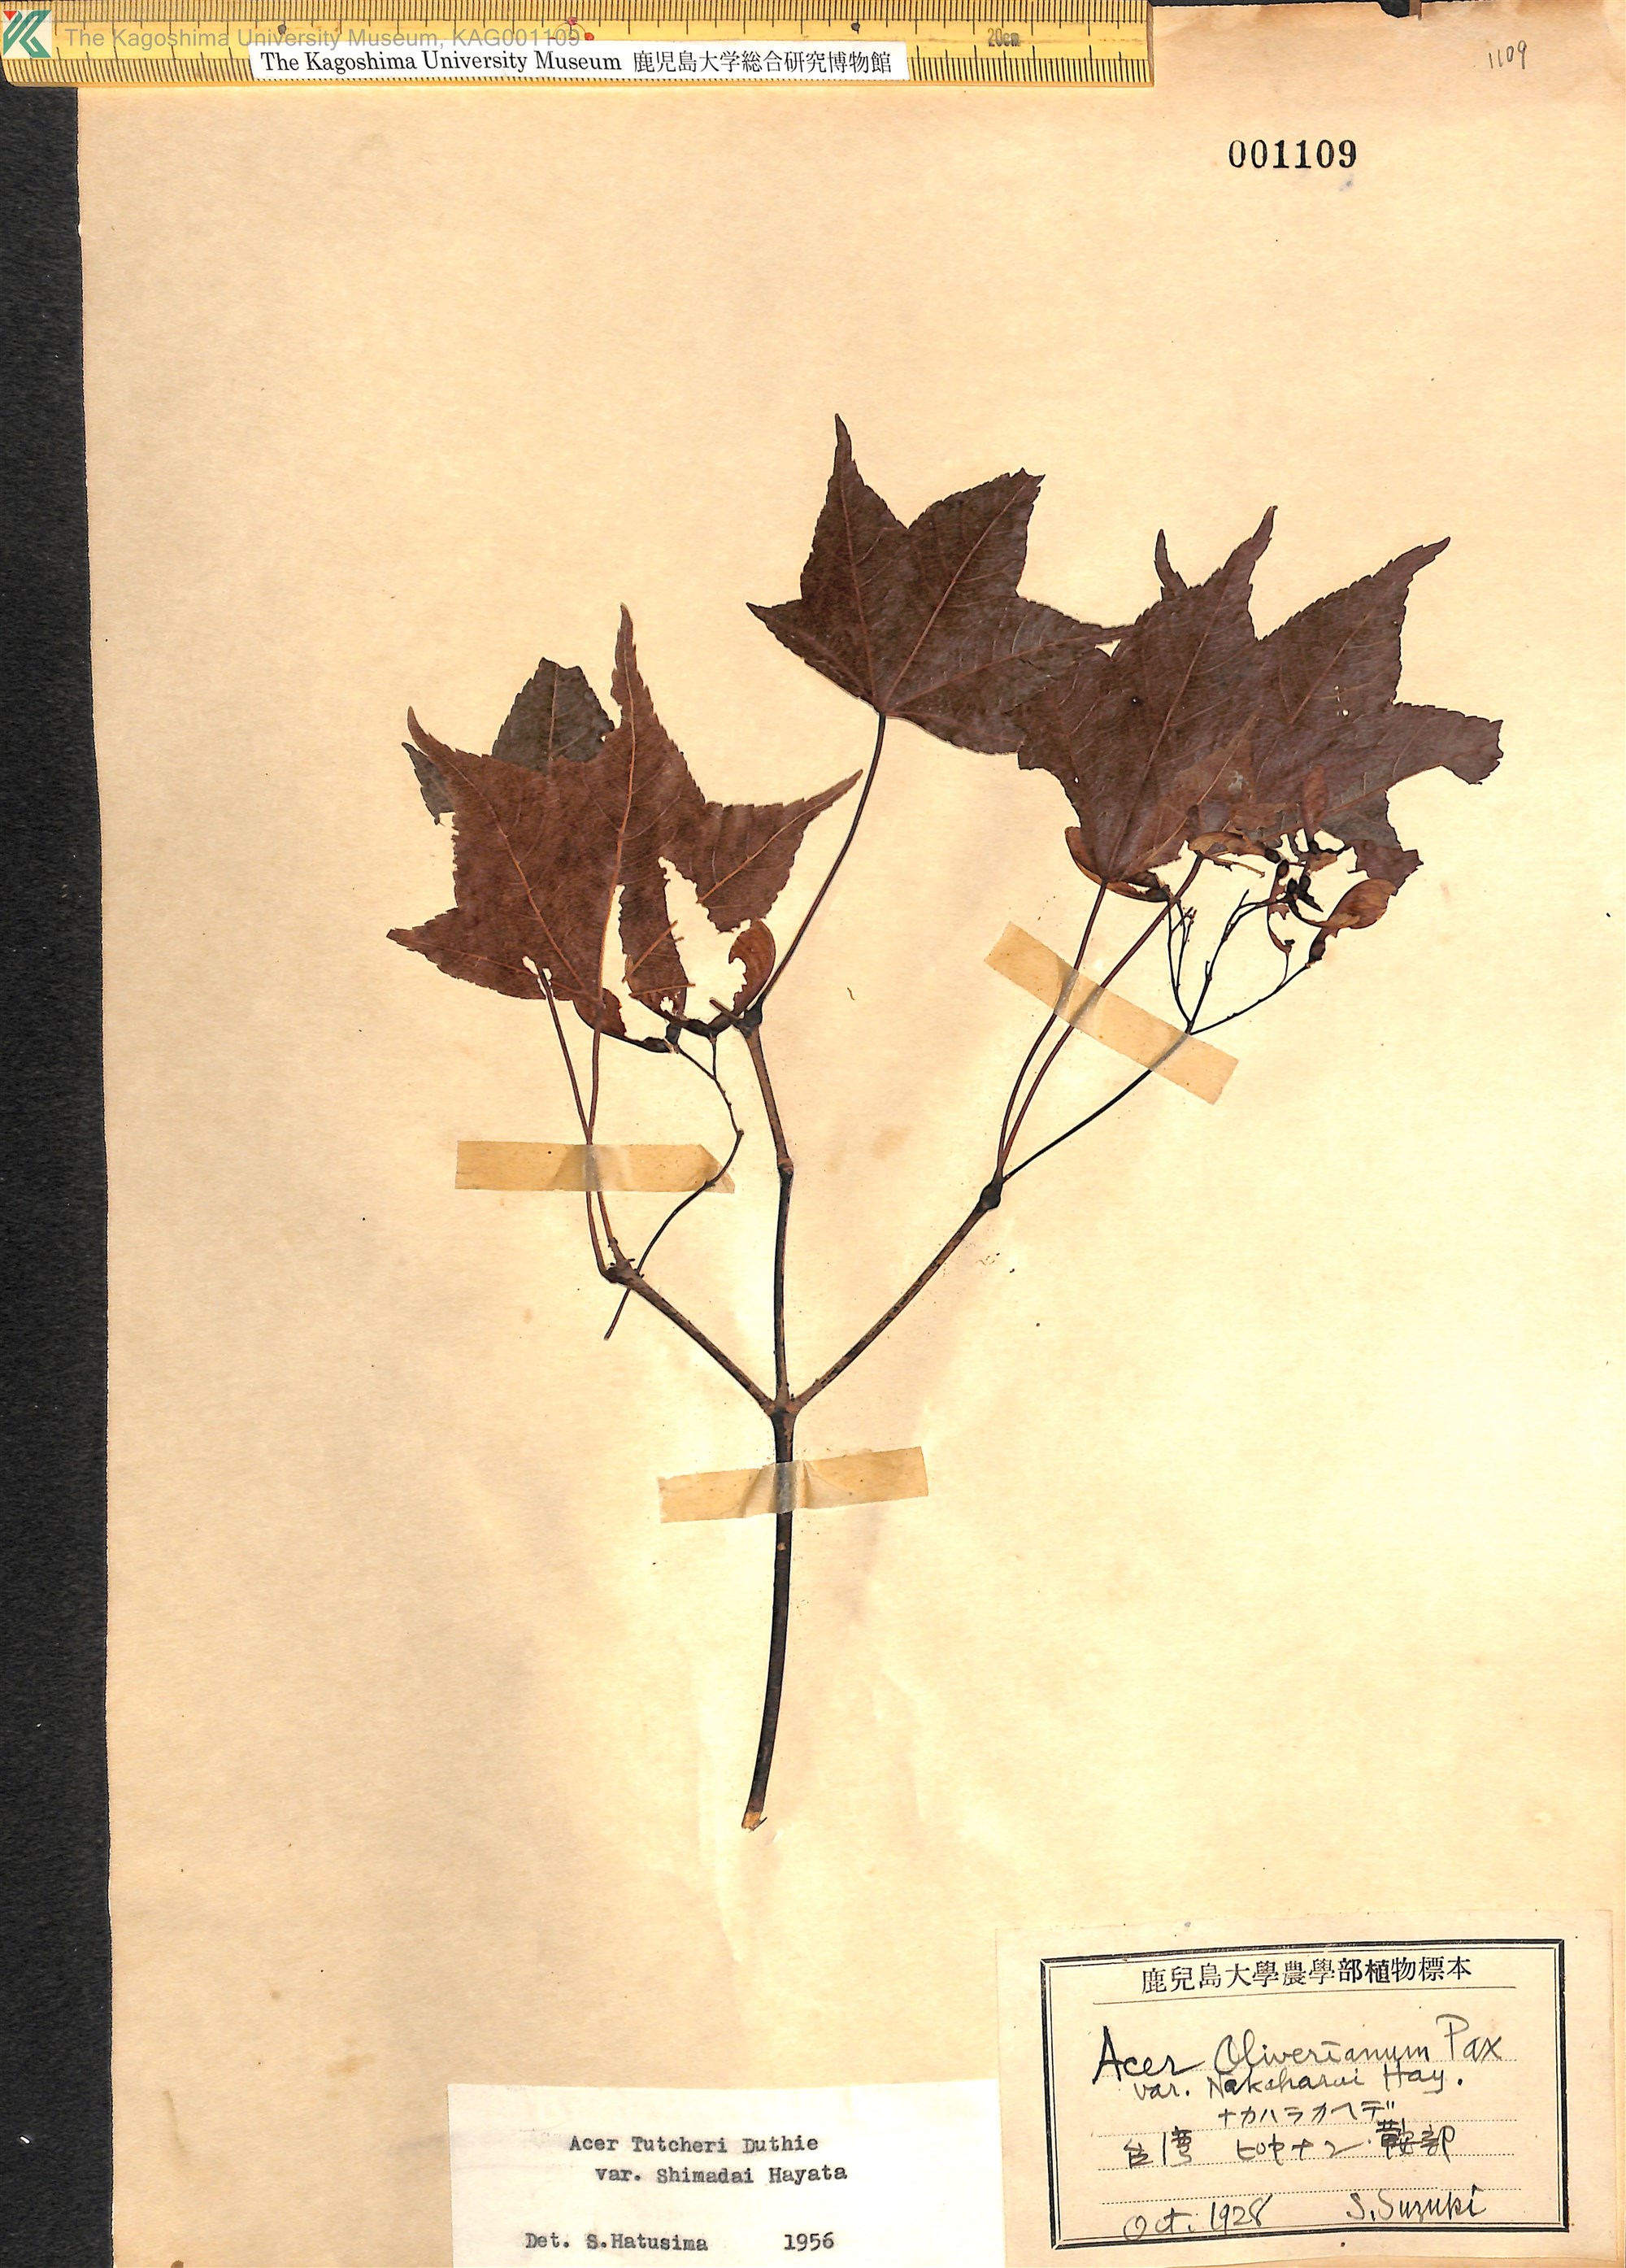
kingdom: Plantae
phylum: Tracheophyta
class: Magnoliopsida
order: Sapindales
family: Sapindaceae
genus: Acer
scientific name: Acer tutcheri
